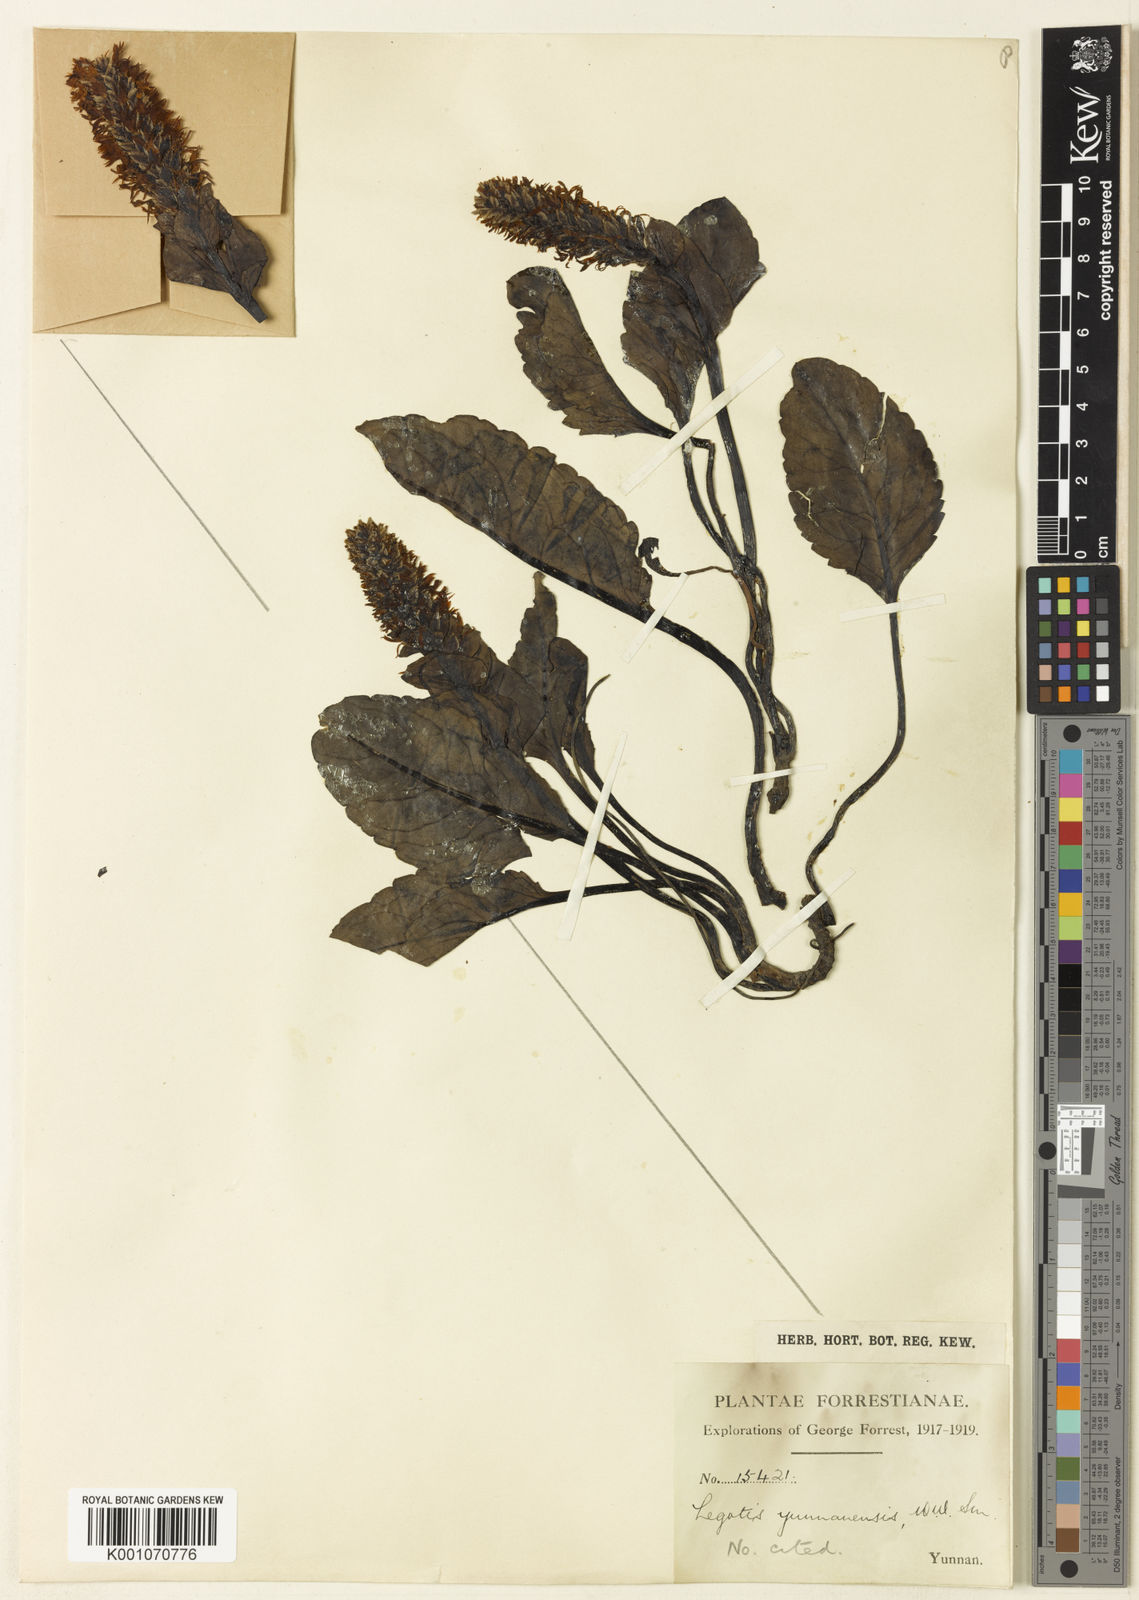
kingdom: Plantae
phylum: Tracheophyta
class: Magnoliopsida
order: Lamiales
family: Plantaginaceae
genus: Lagotis
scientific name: Lagotis yunnanensis
